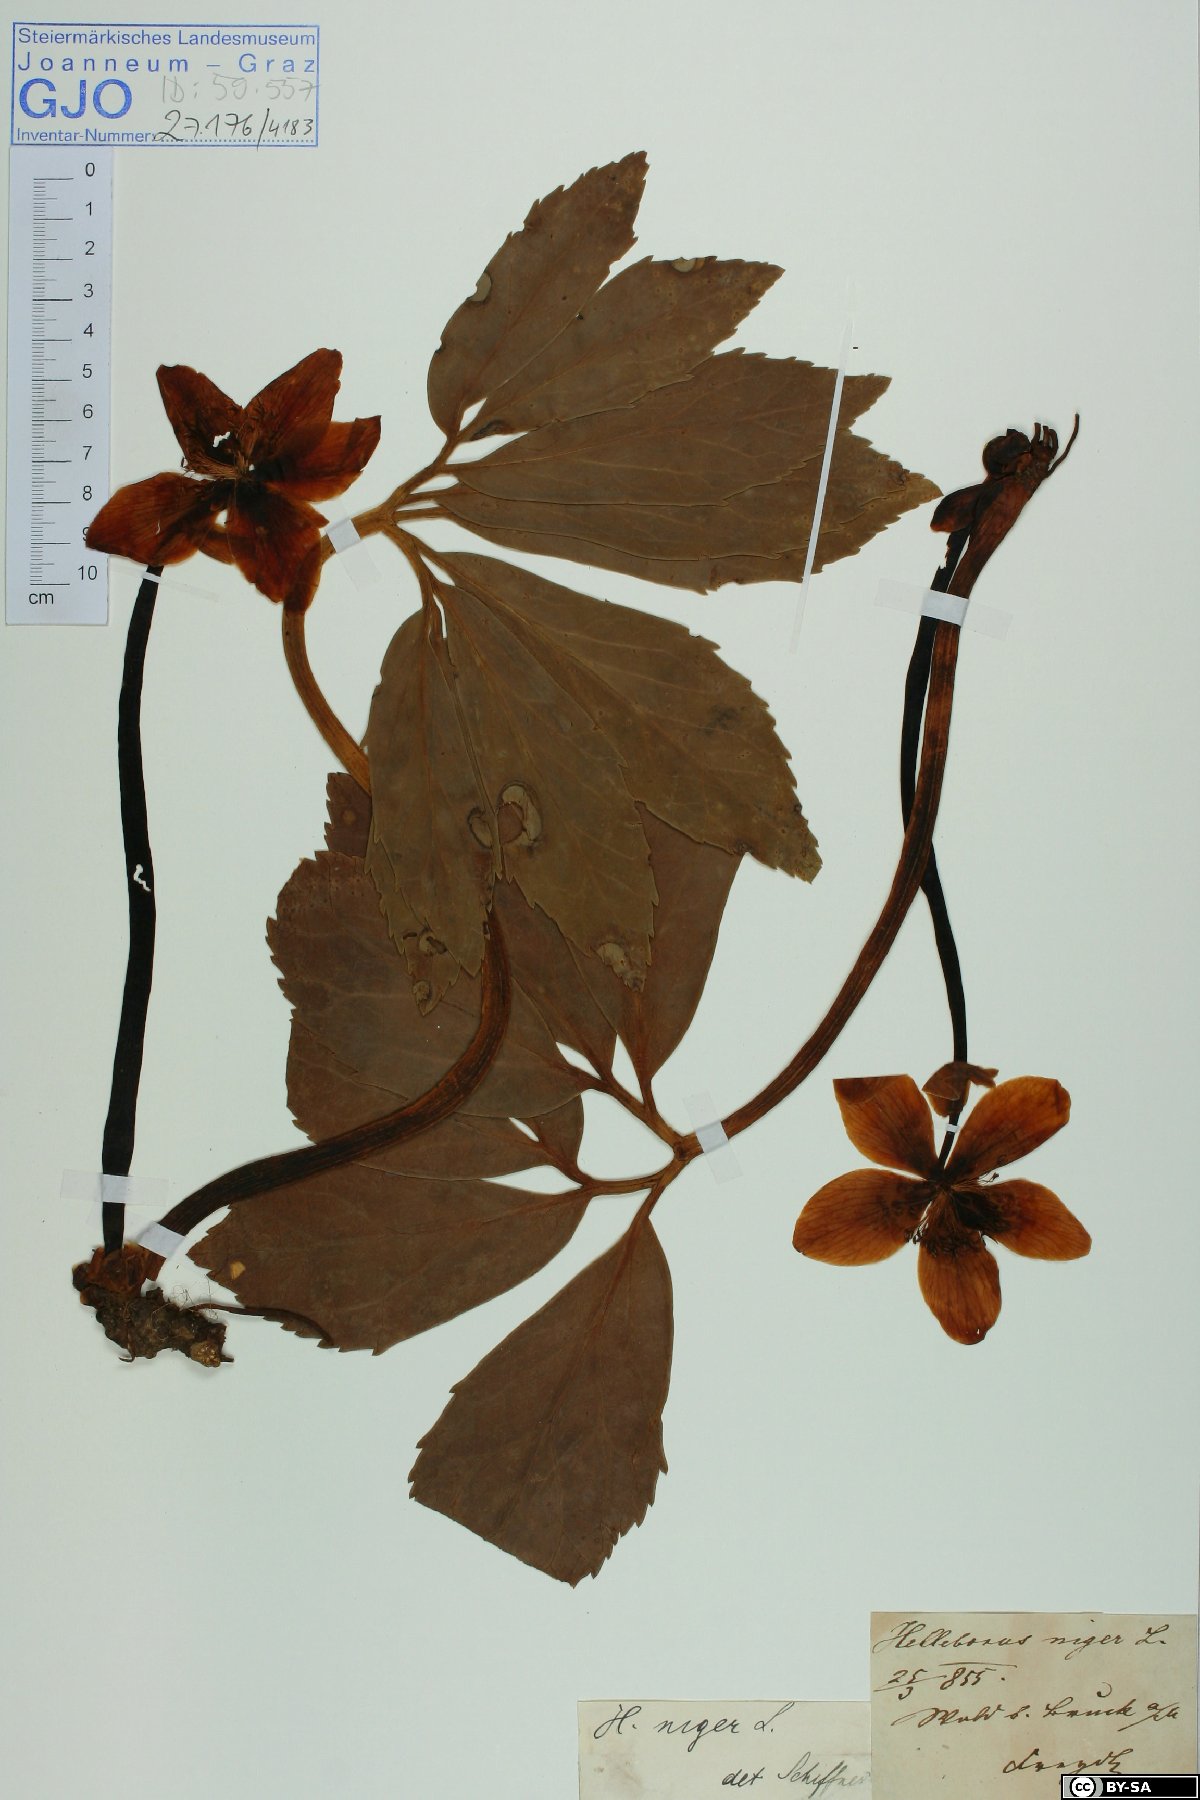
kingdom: Plantae
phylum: Tracheophyta
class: Magnoliopsida
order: Ranunculales
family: Ranunculaceae
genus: Helleborus
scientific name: Helleborus niger
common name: Black hellebore
